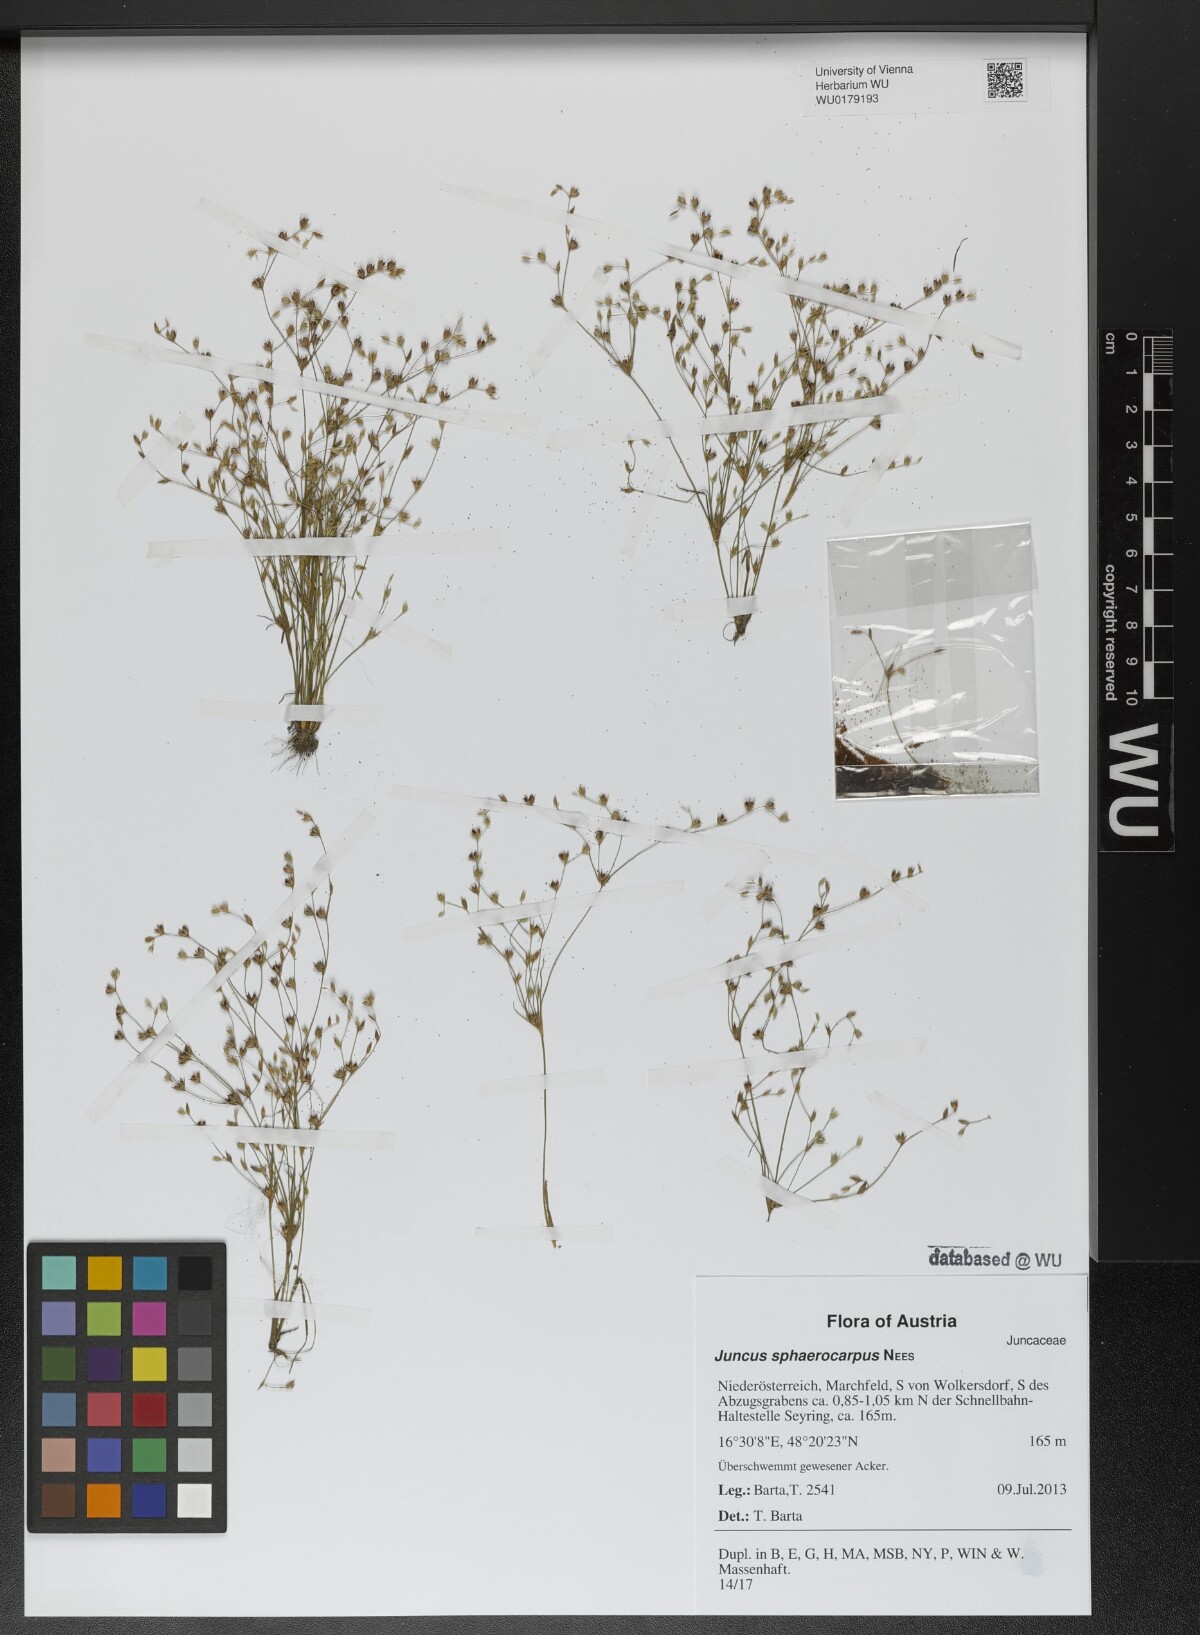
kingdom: Plantae
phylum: Tracheophyta
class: Liliopsida
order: Poales
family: Juncaceae
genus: Juncus
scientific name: Juncus sphaerocarpus
